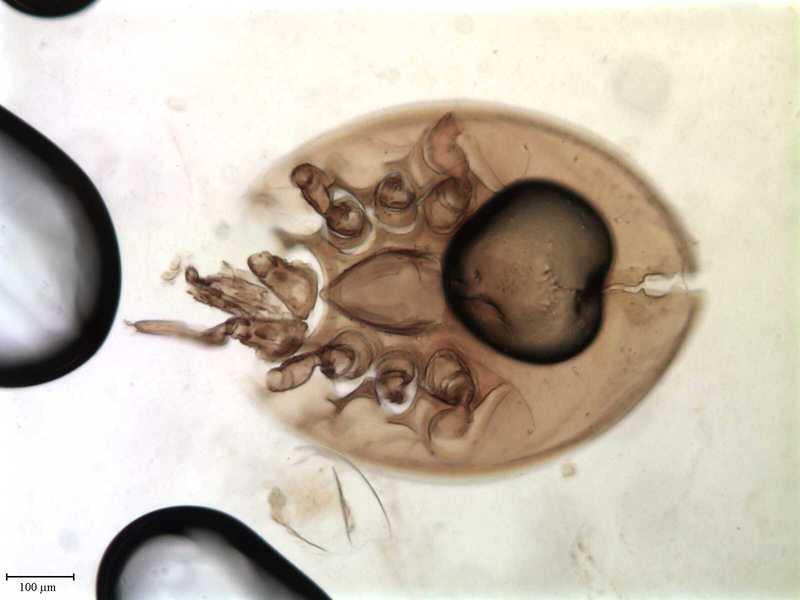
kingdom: Animalia
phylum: Arthropoda
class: Arachnida
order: Mesostigmata
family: Uropodidae
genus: Uroobovella
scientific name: Uroobovella marginata
